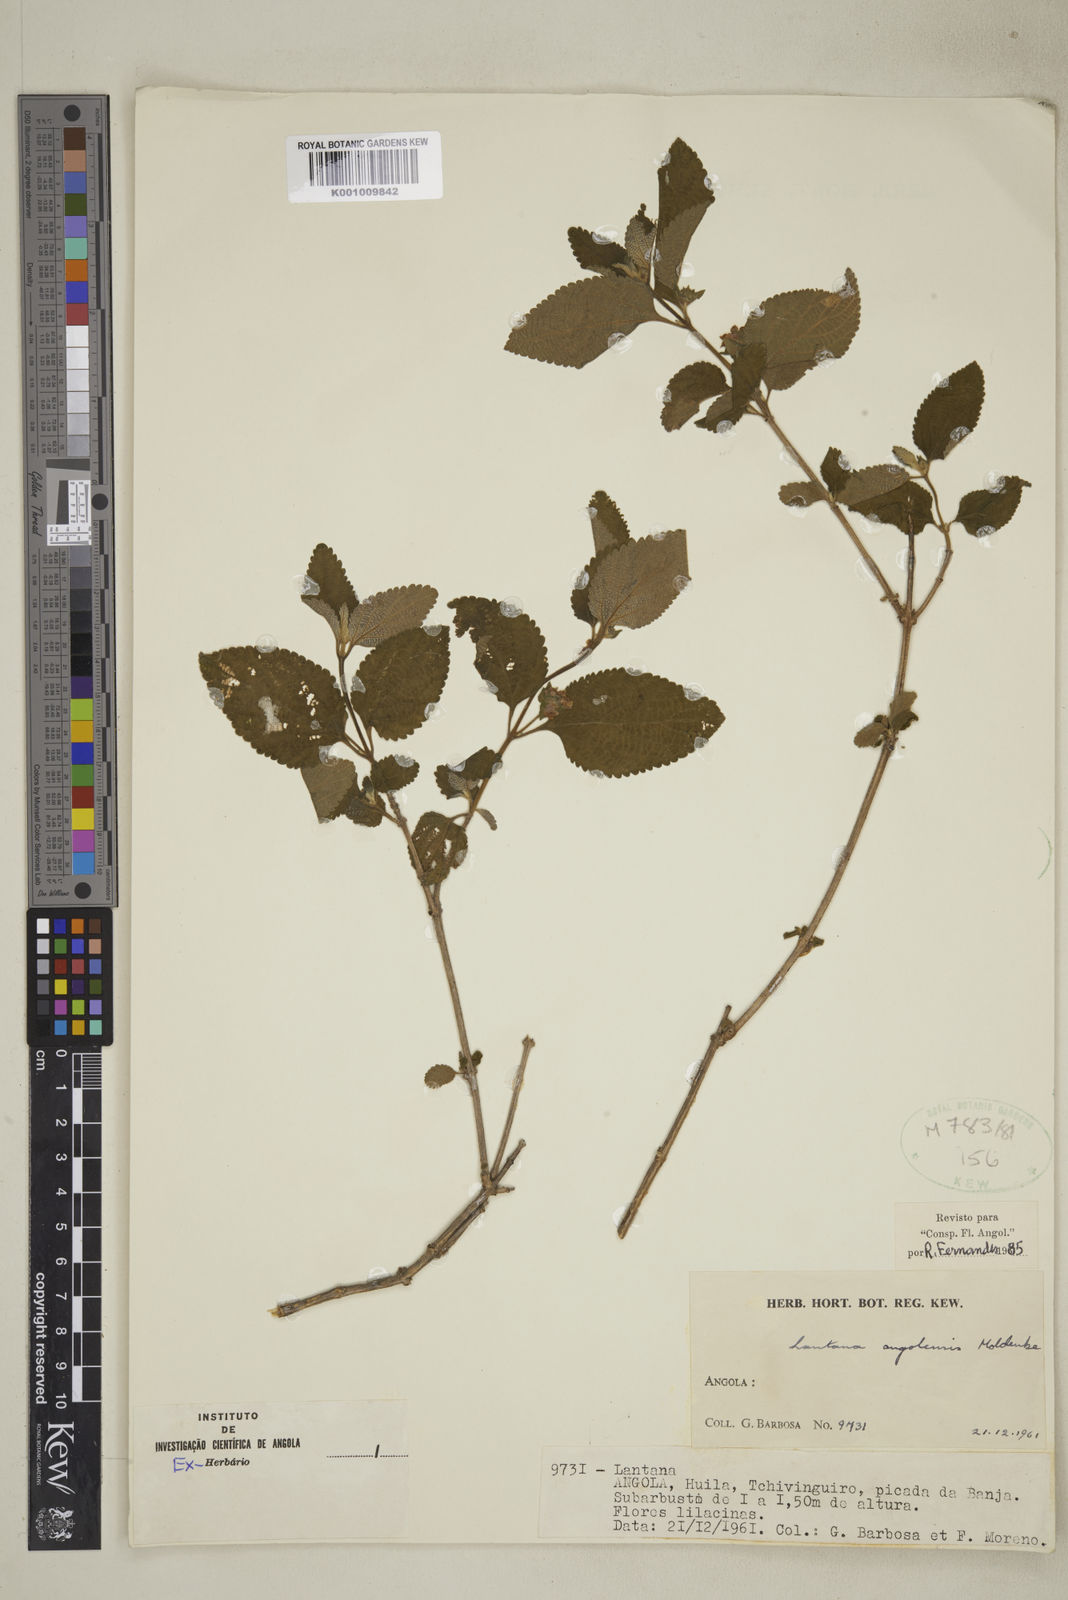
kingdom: Plantae
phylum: Tracheophyta
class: Magnoliopsida
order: Lamiales
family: Verbenaceae
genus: Lantana
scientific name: Lantana angolensis
